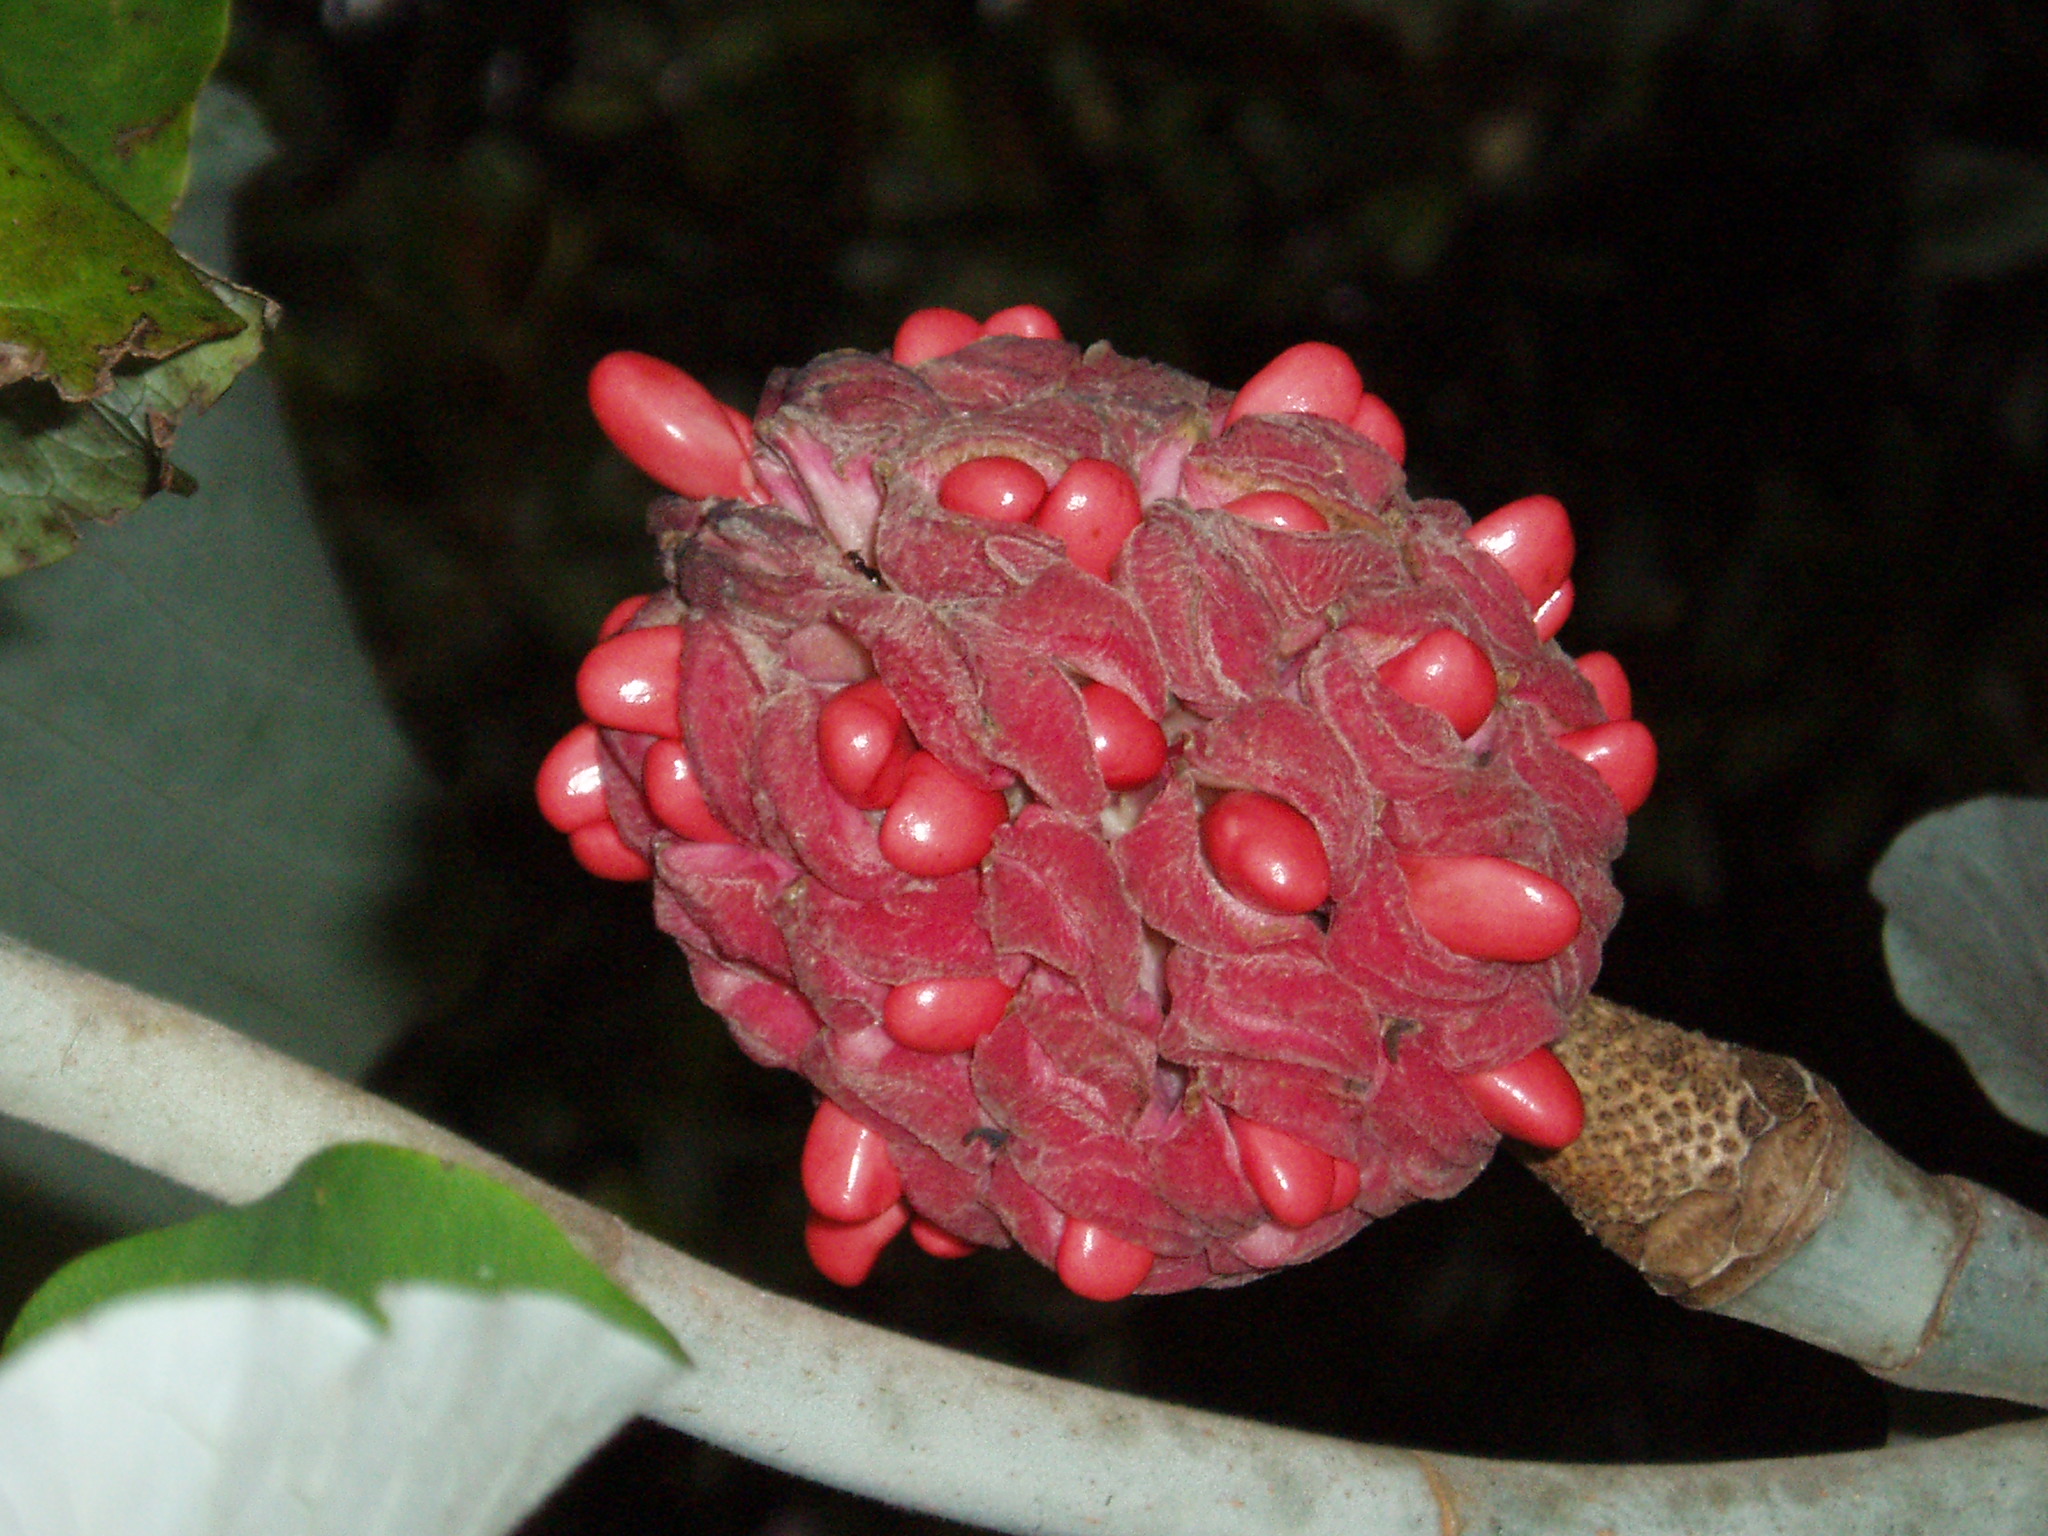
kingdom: Plantae
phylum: Tracheophyta
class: Magnoliopsida
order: Magnoliales
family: Magnoliaceae
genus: Magnolia
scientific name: Magnolia macrophylla
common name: Big-leaf magnolia
